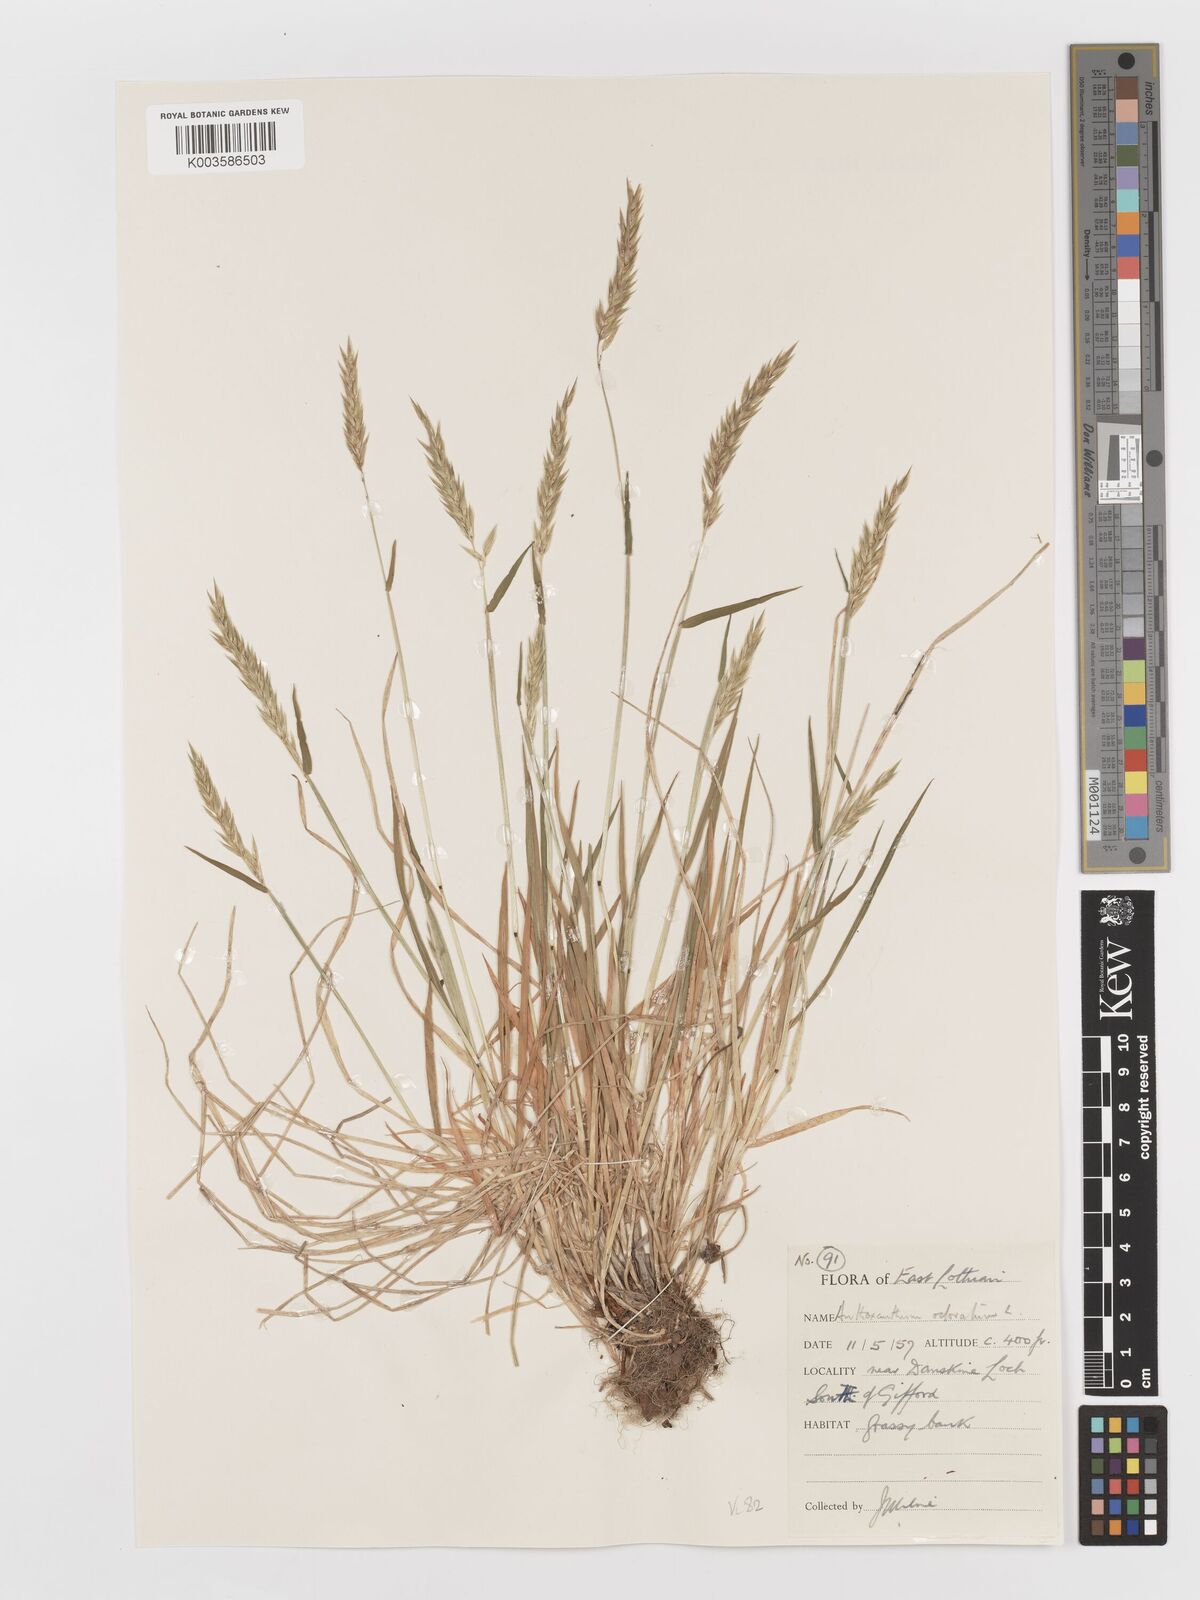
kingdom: Plantae
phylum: Tracheophyta
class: Liliopsida
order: Poales
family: Poaceae
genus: Anthoxanthum
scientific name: Anthoxanthum odoratum
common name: Sweet vernalgrass
